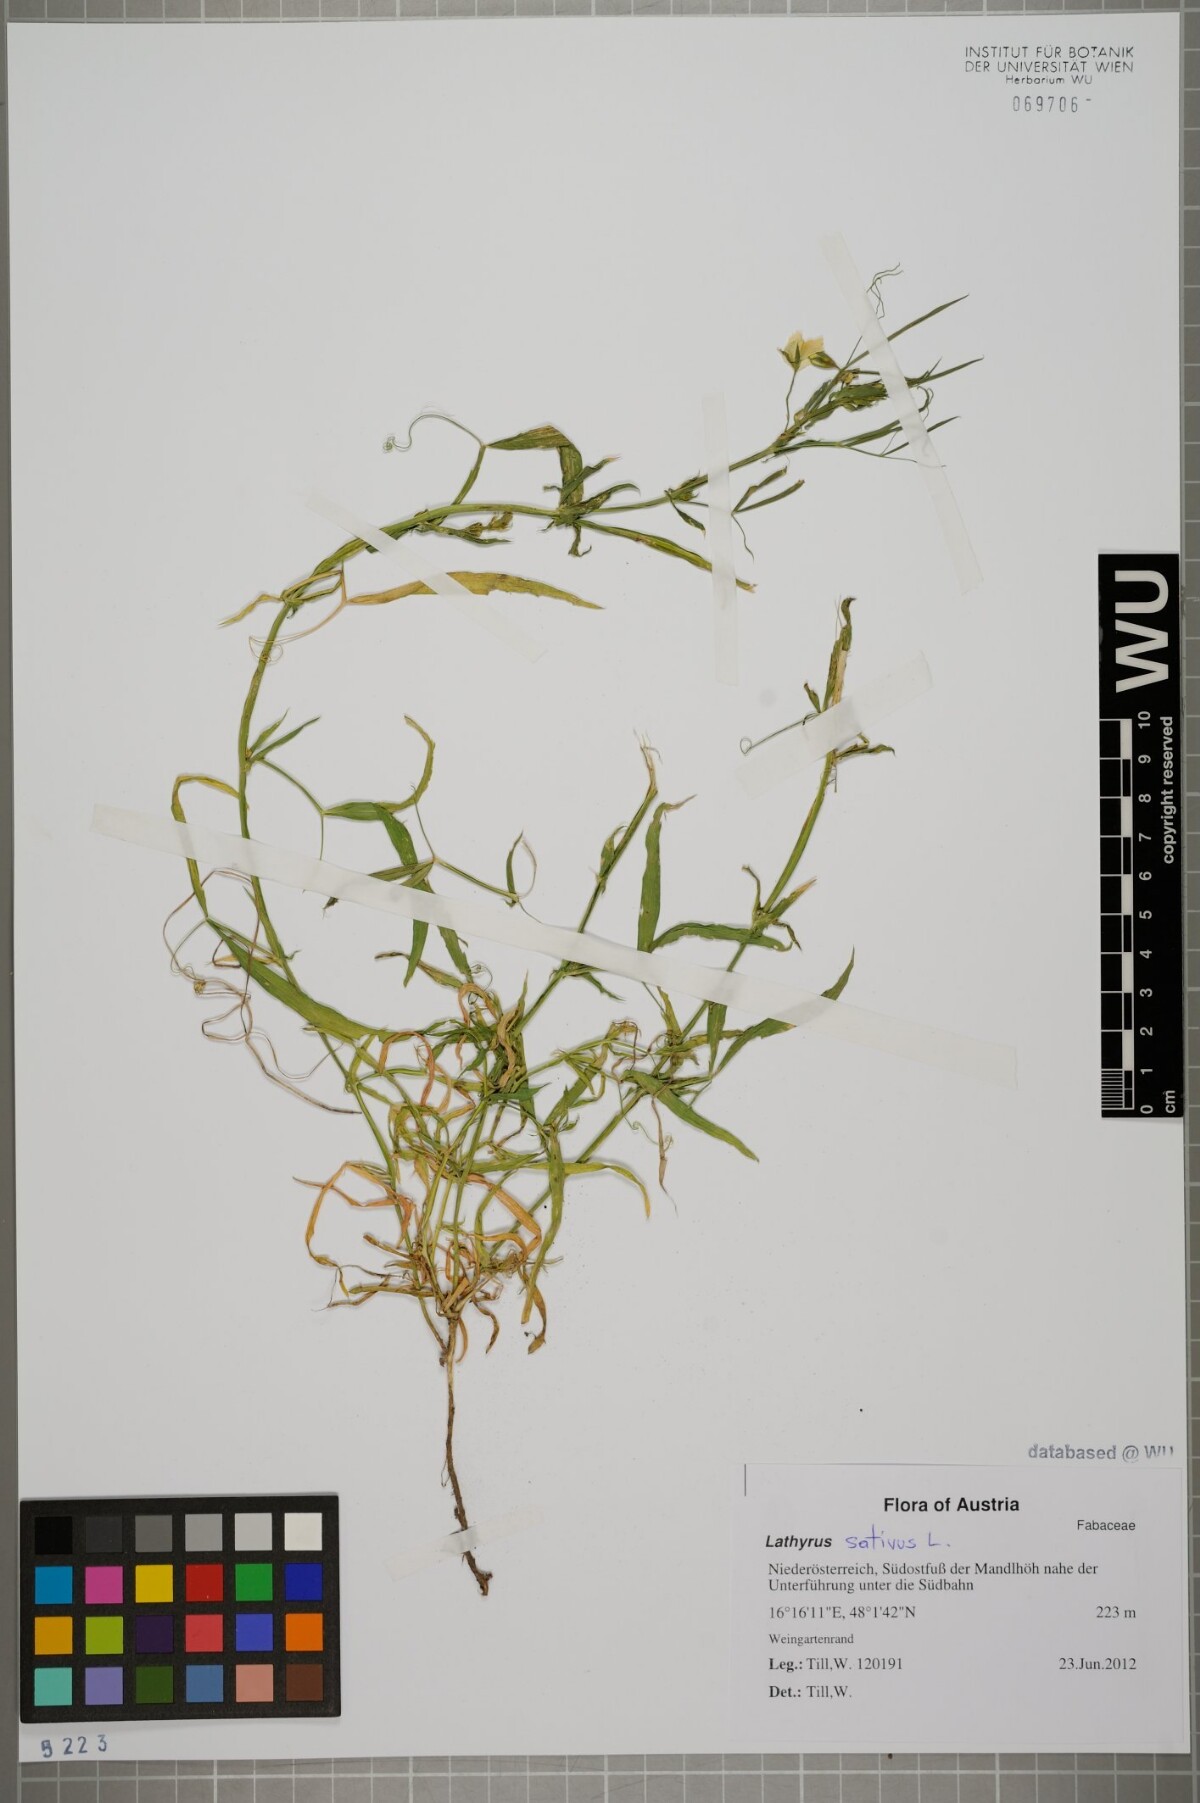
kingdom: Plantae
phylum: Tracheophyta
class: Magnoliopsida
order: Fabales
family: Fabaceae
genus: Lathyrus
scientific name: Lathyrus sativus
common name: Indian pea
